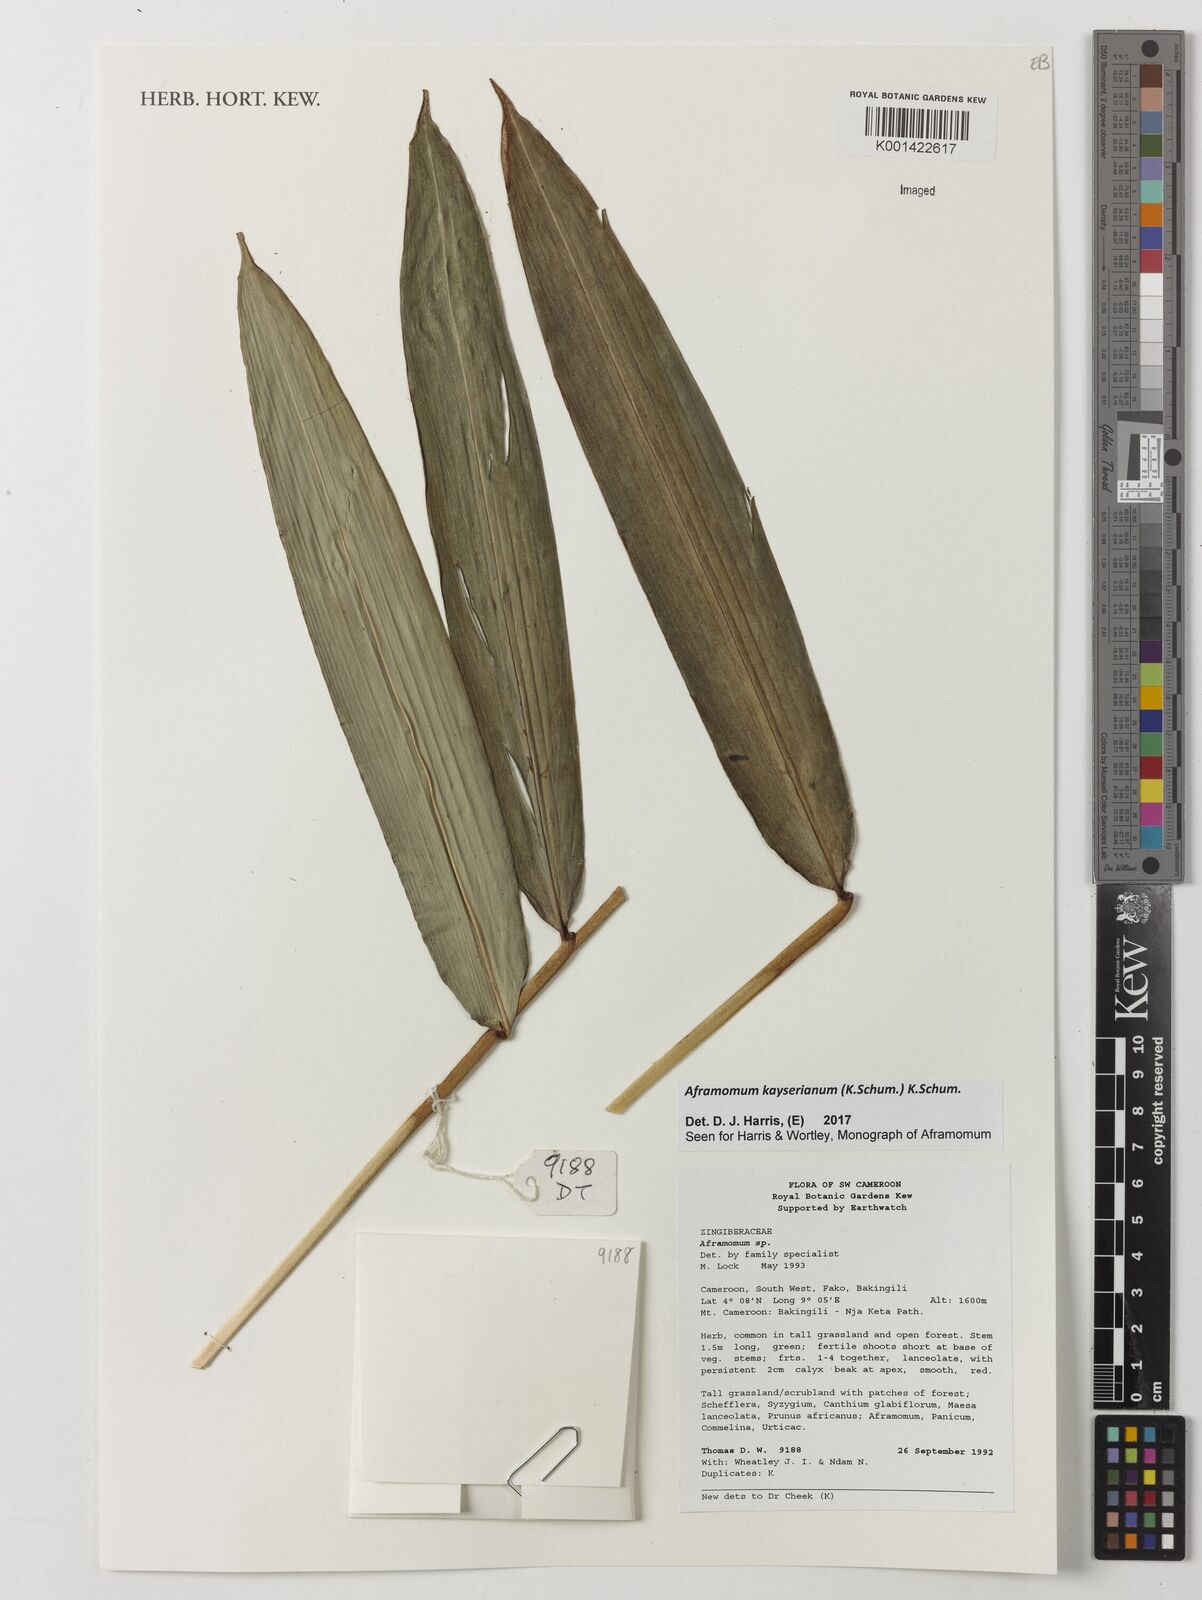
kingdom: Plantae
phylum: Tracheophyta
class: Liliopsida
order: Zingiberales
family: Zingiberaceae
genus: Aframomum
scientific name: Aframomum kayserianum
